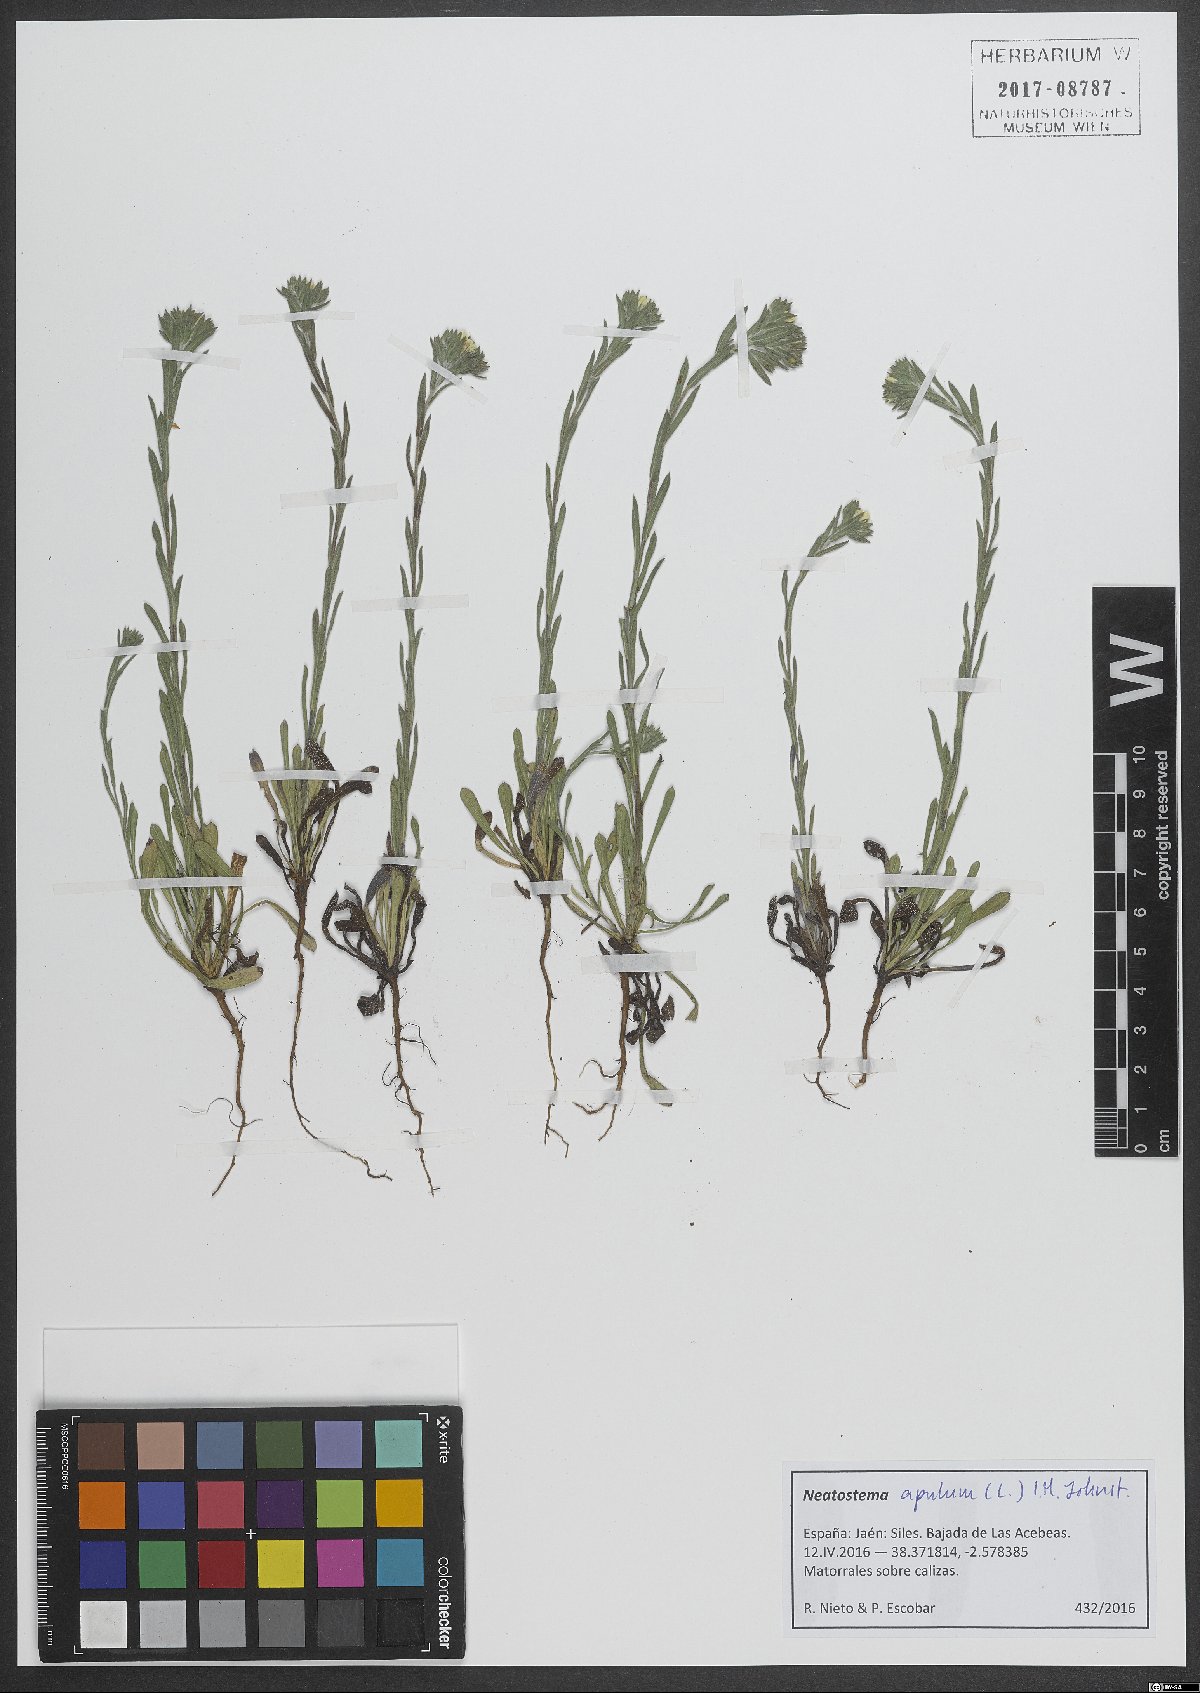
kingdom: Plantae
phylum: Tracheophyta
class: Magnoliopsida
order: Boraginales
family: Boraginaceae
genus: Neatostema
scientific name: Neatostema apulum
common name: Hairy sheepweed
